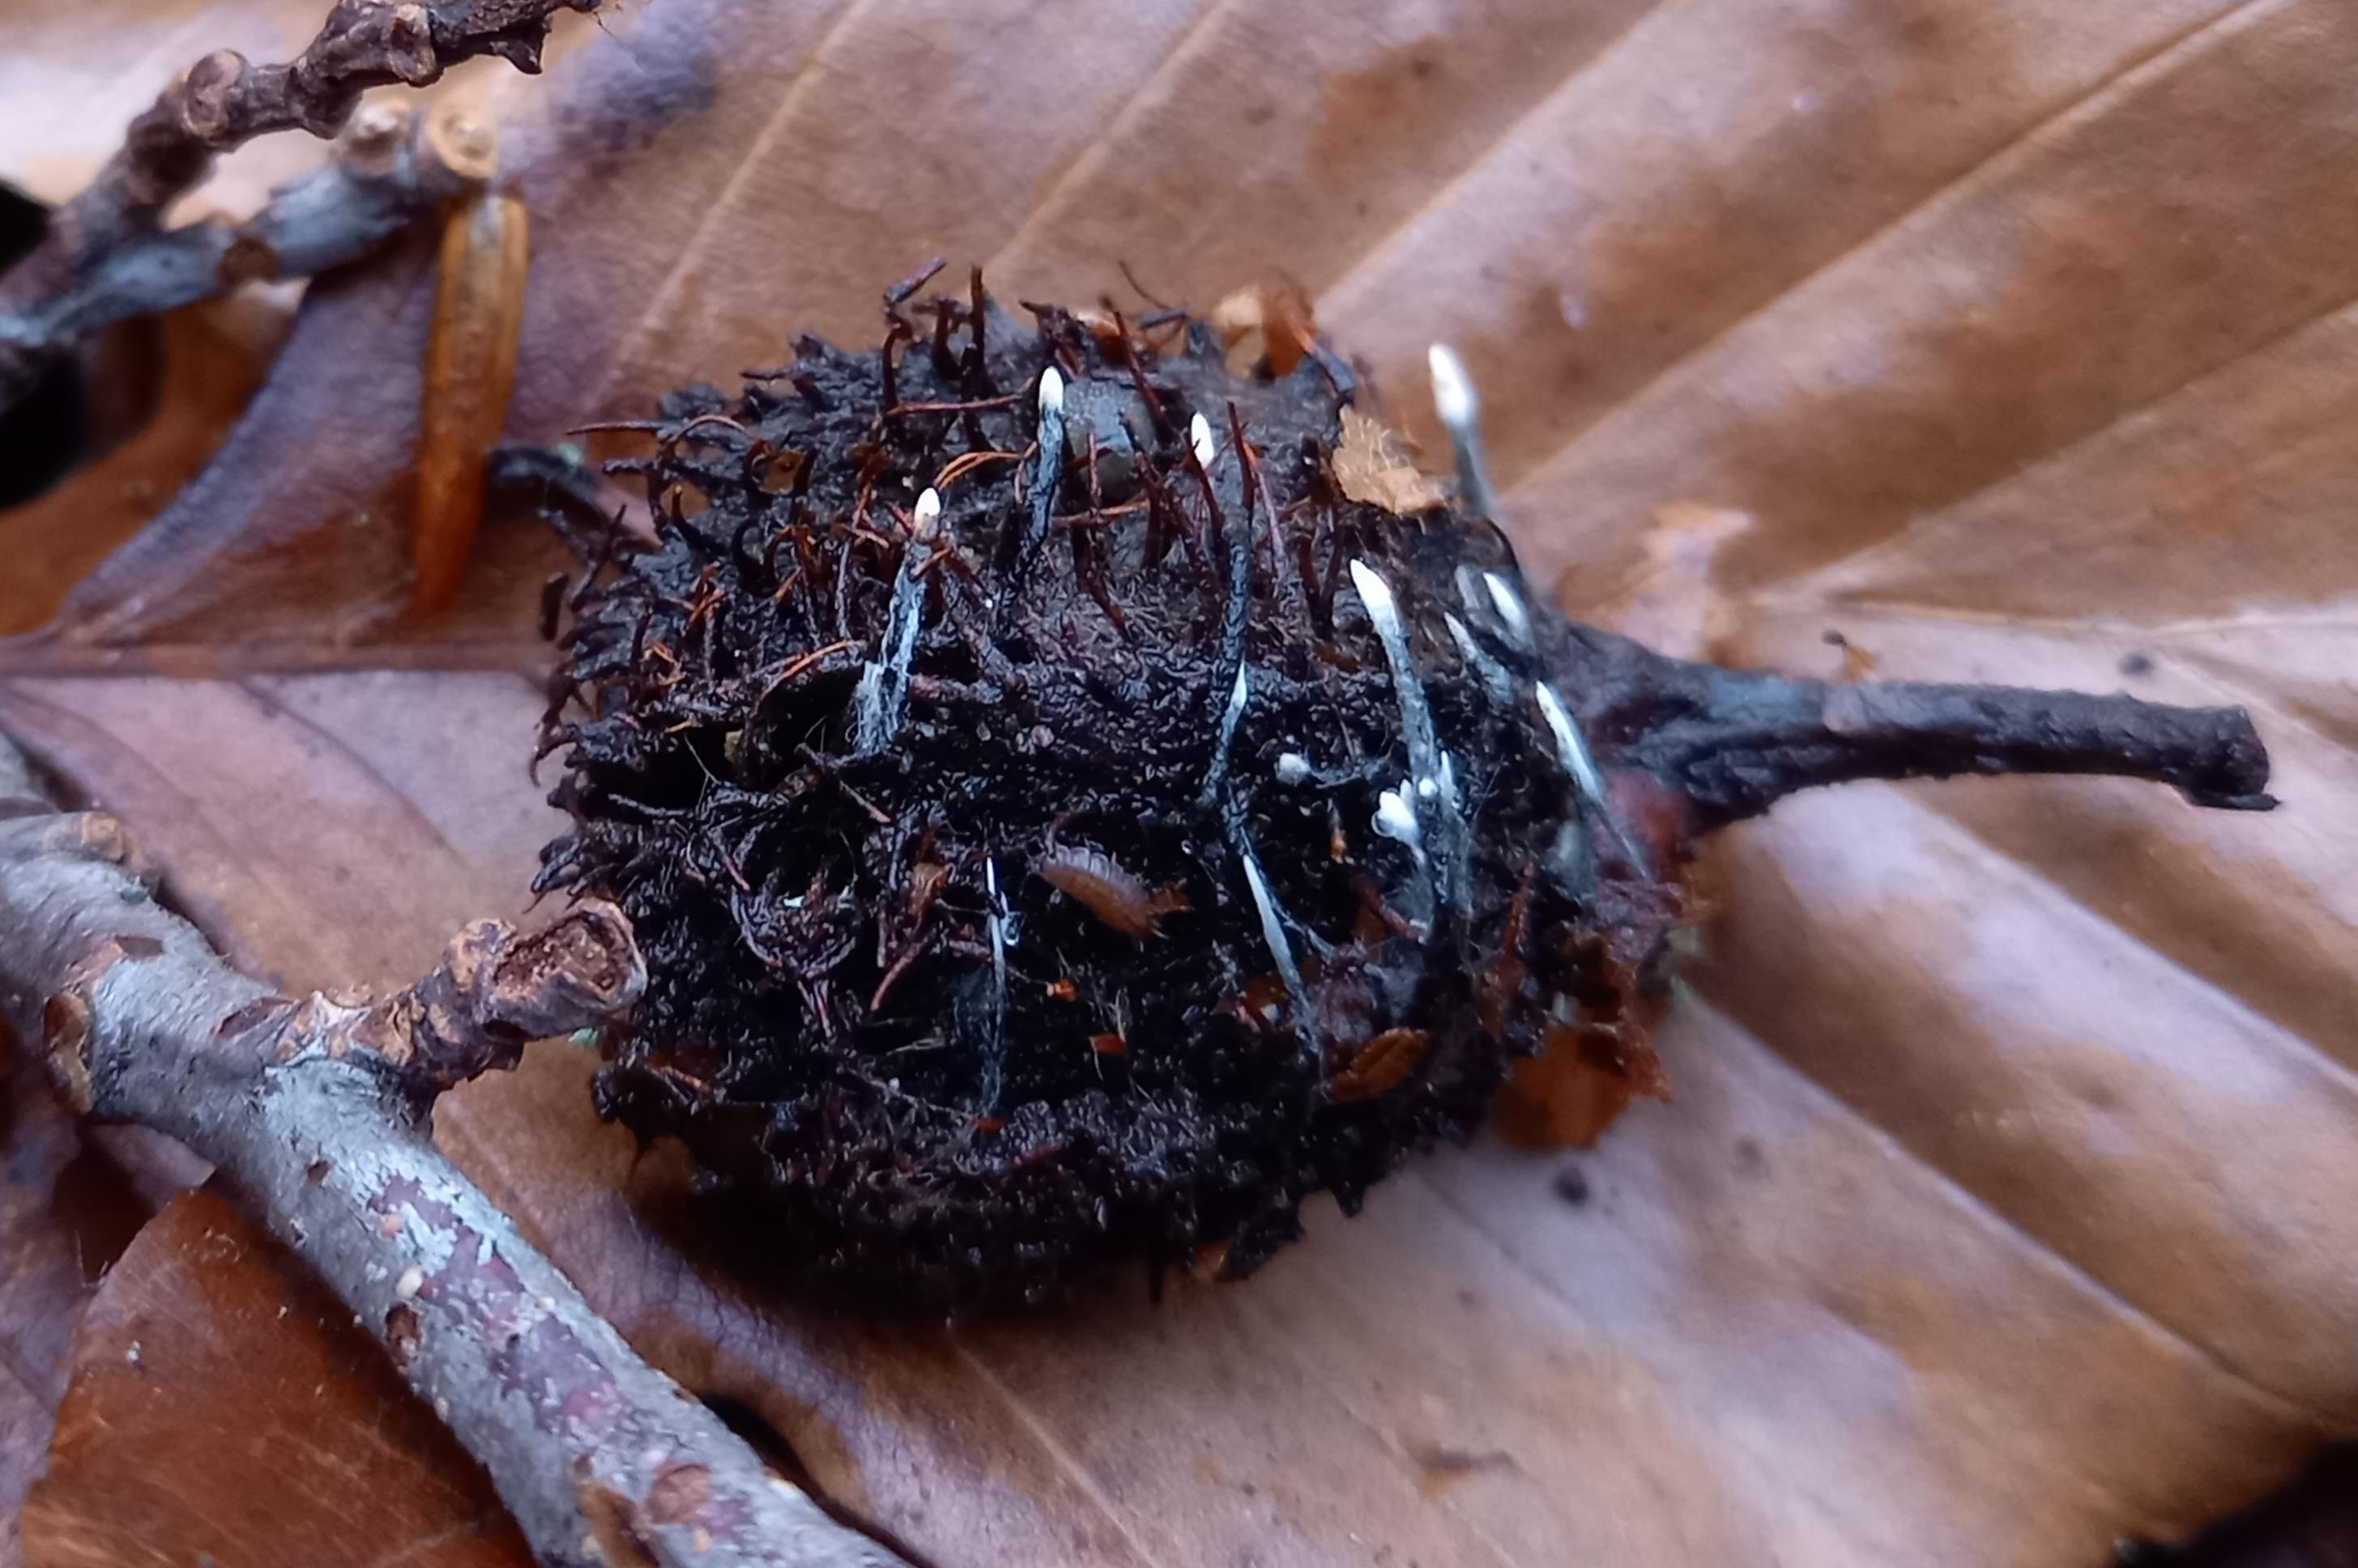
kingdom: Fungi
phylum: Ascomycota
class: Sordariomycetes
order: Xylariales
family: Xylariaceae
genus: Xylaria
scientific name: Xylaria carpophila
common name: bogskål-stødsvamp
